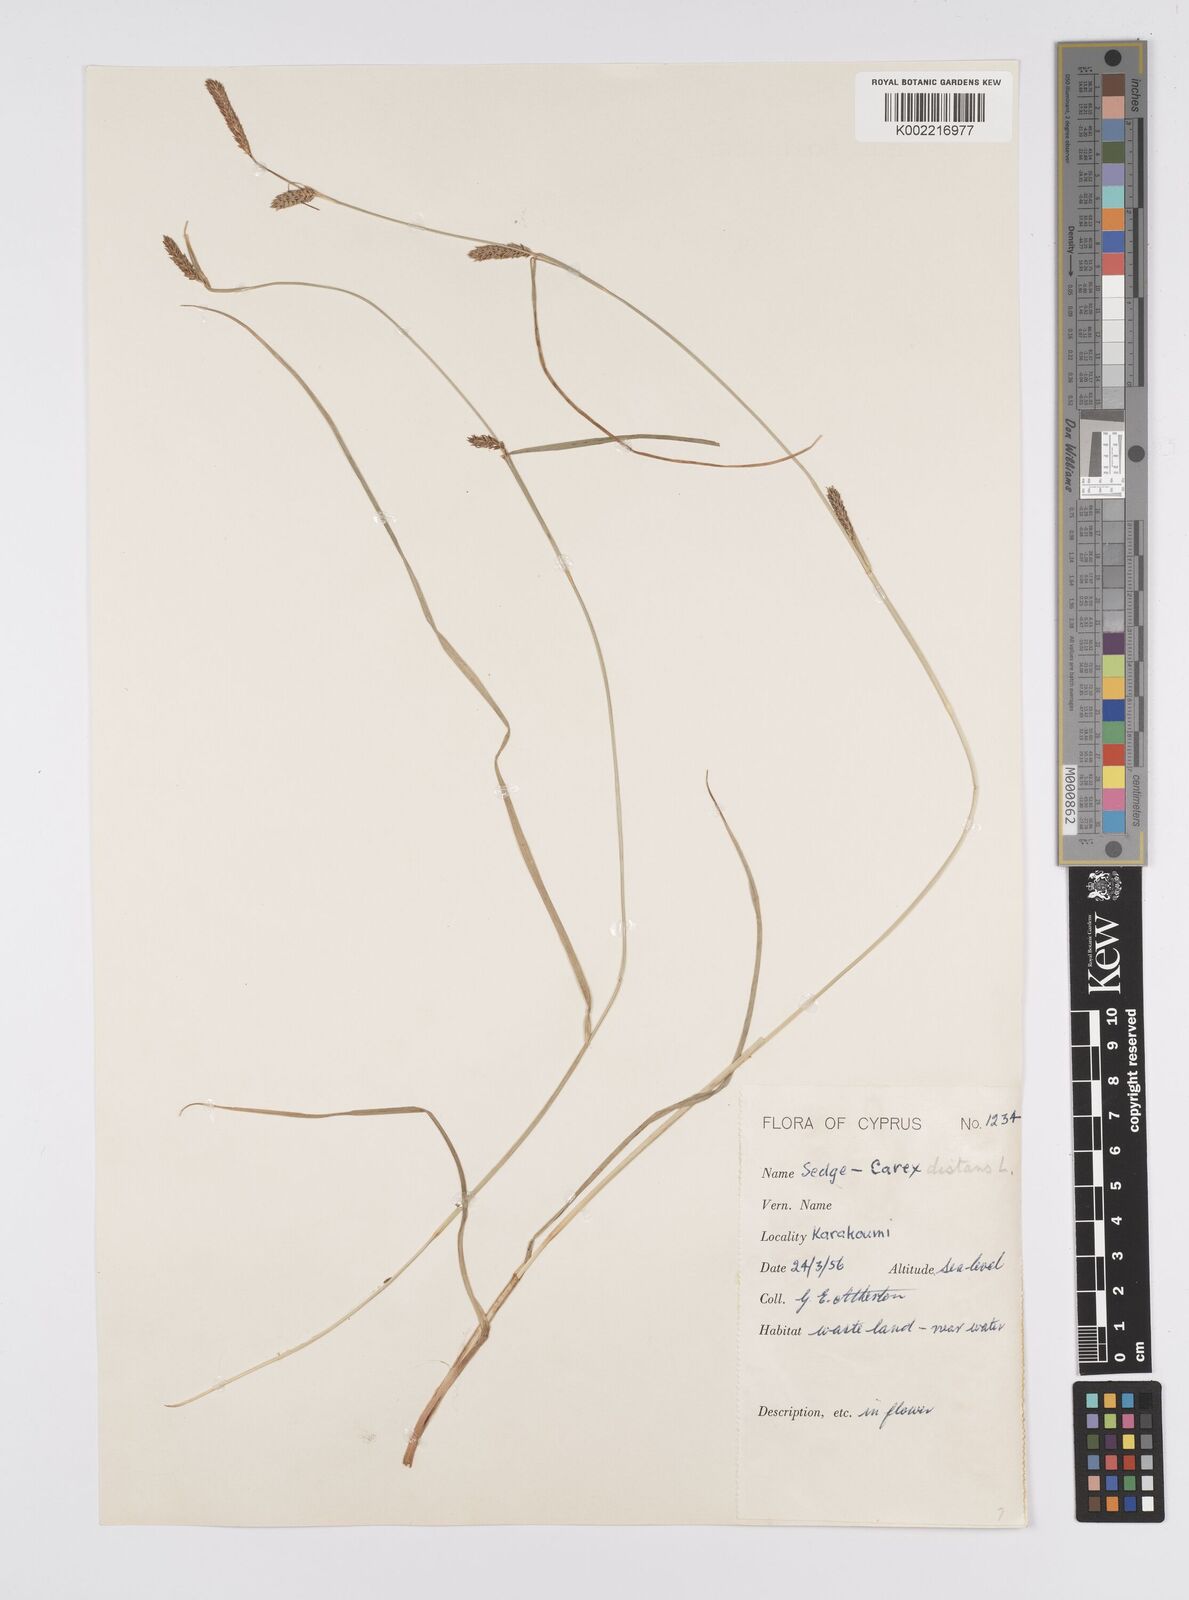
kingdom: Plantae
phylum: Tracheophyta
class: Liliopsida
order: Poales
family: Cyperaceae
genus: Carex
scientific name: Carex distans
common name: Distant sedge
